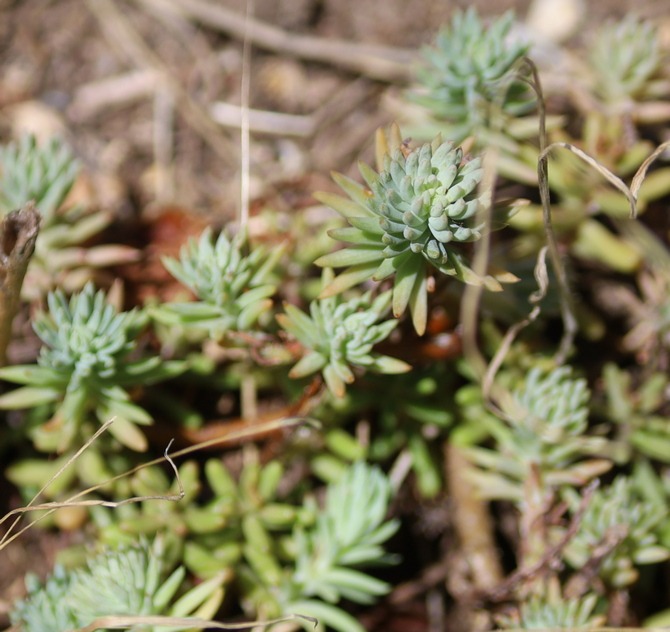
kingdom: Plantae
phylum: Tracheophyta
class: Magnoliopsida
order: Saxifragales
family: Crassulaceae
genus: Petrosedum
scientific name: Petrosedum rupestre
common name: Bjerg-stenurt
